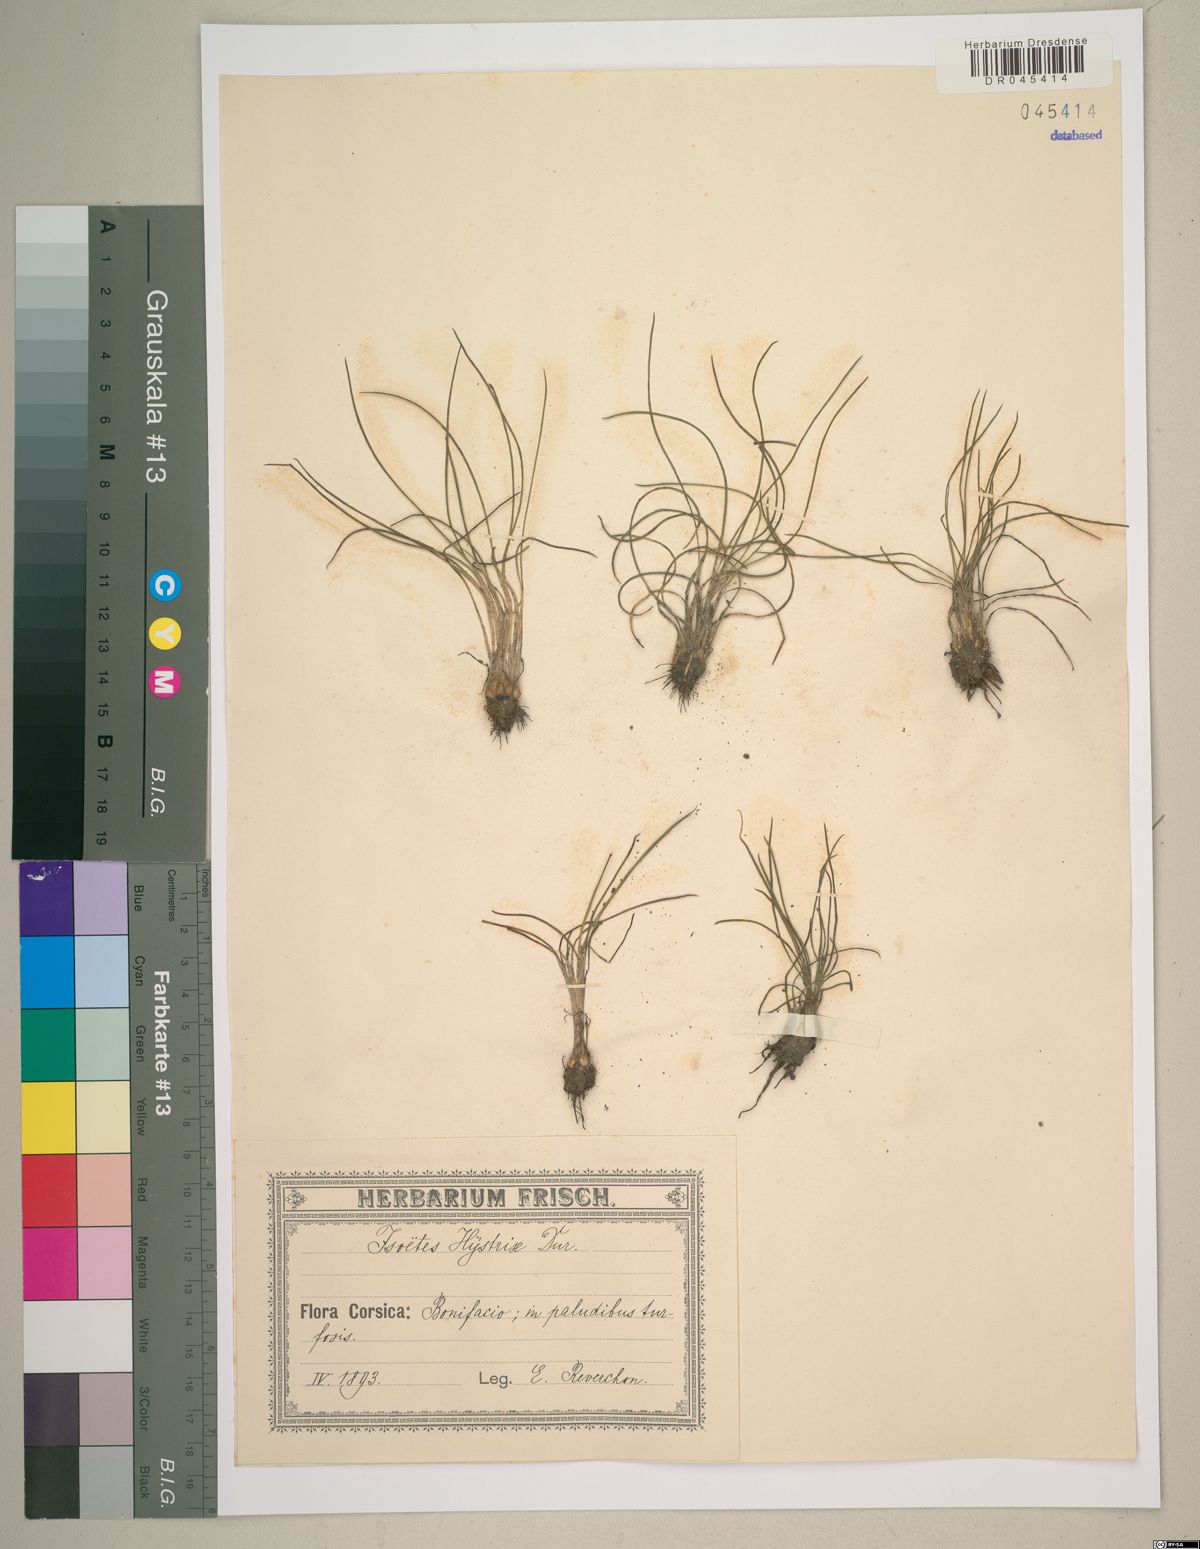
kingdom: Plantae
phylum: Tracheophyta
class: Lycopodiopsida
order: Isoetales
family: Isoetaceae
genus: Isoetes
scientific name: Isoetes histrix
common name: Land quillwort
